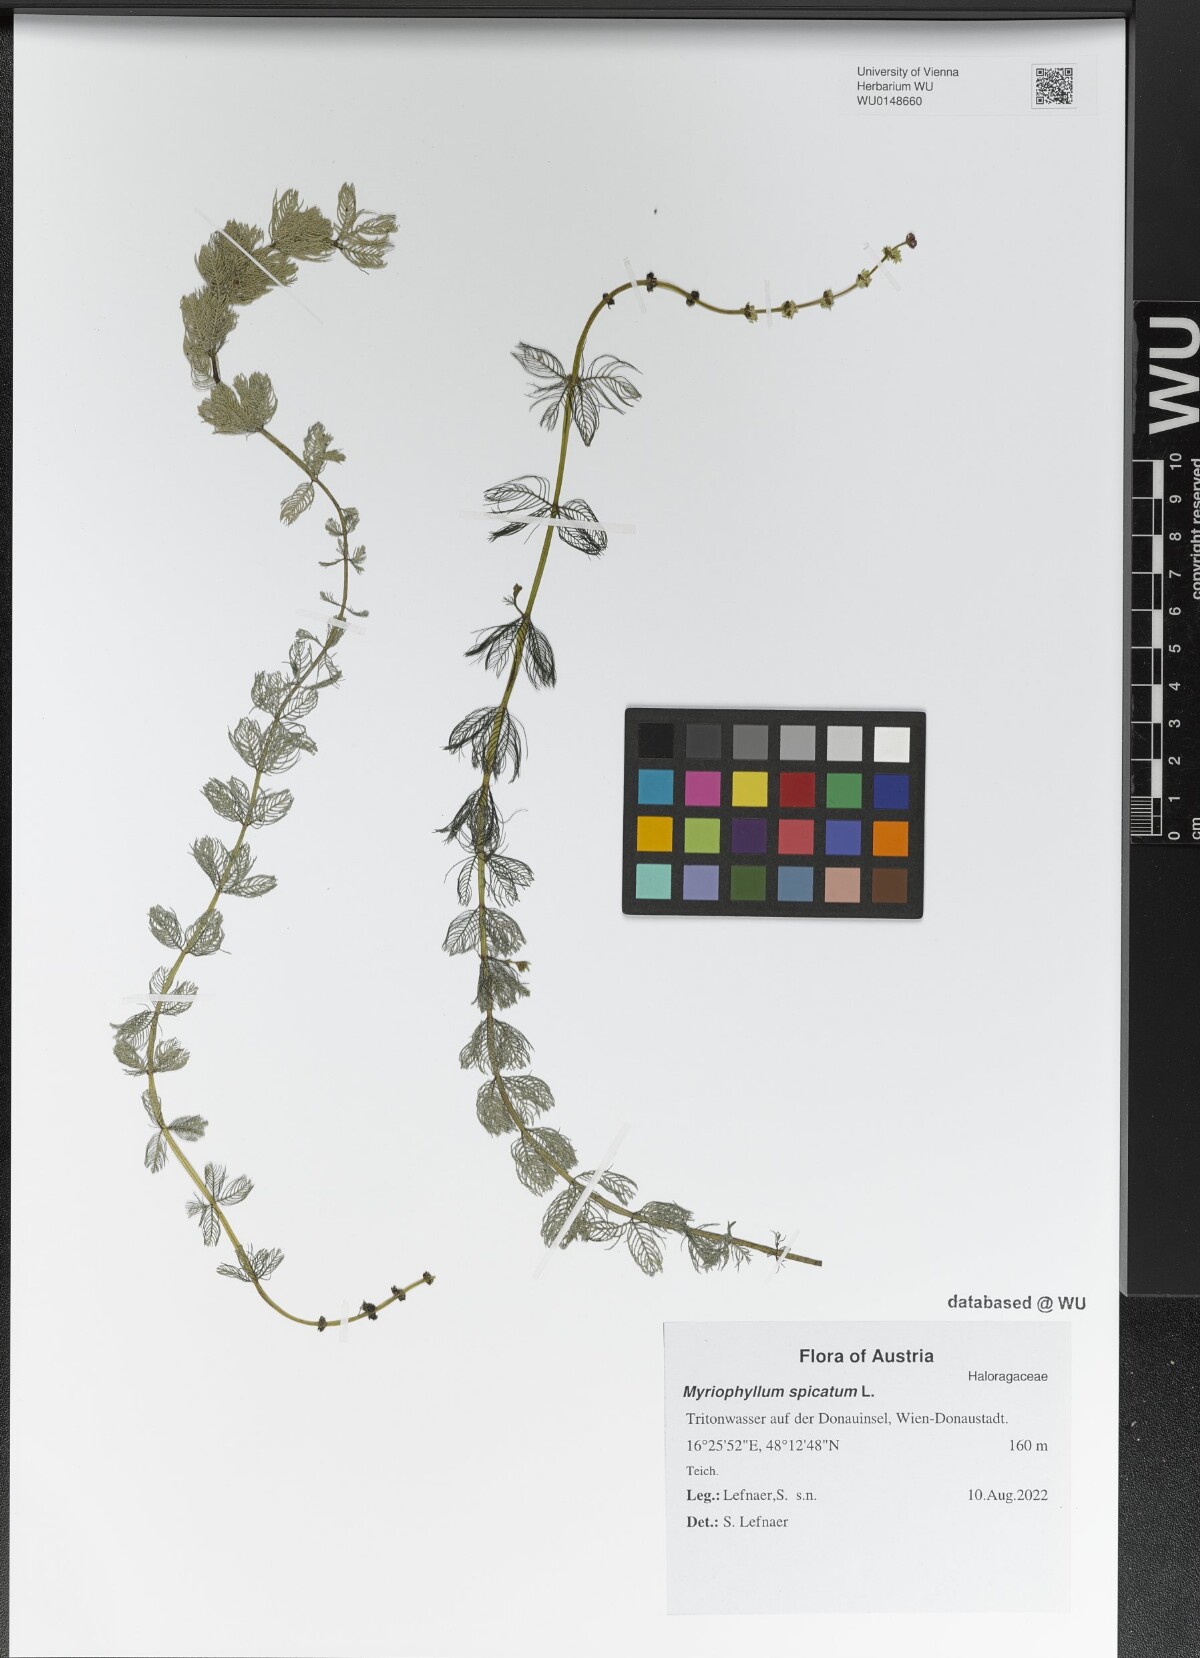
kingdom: Plantae
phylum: Tracheophyta
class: Magnoliopsida
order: Saxifragales
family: Haloragaceae
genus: Myriophyllum
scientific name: Myriophyllum spicatum
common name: Spiked water-milfoil
